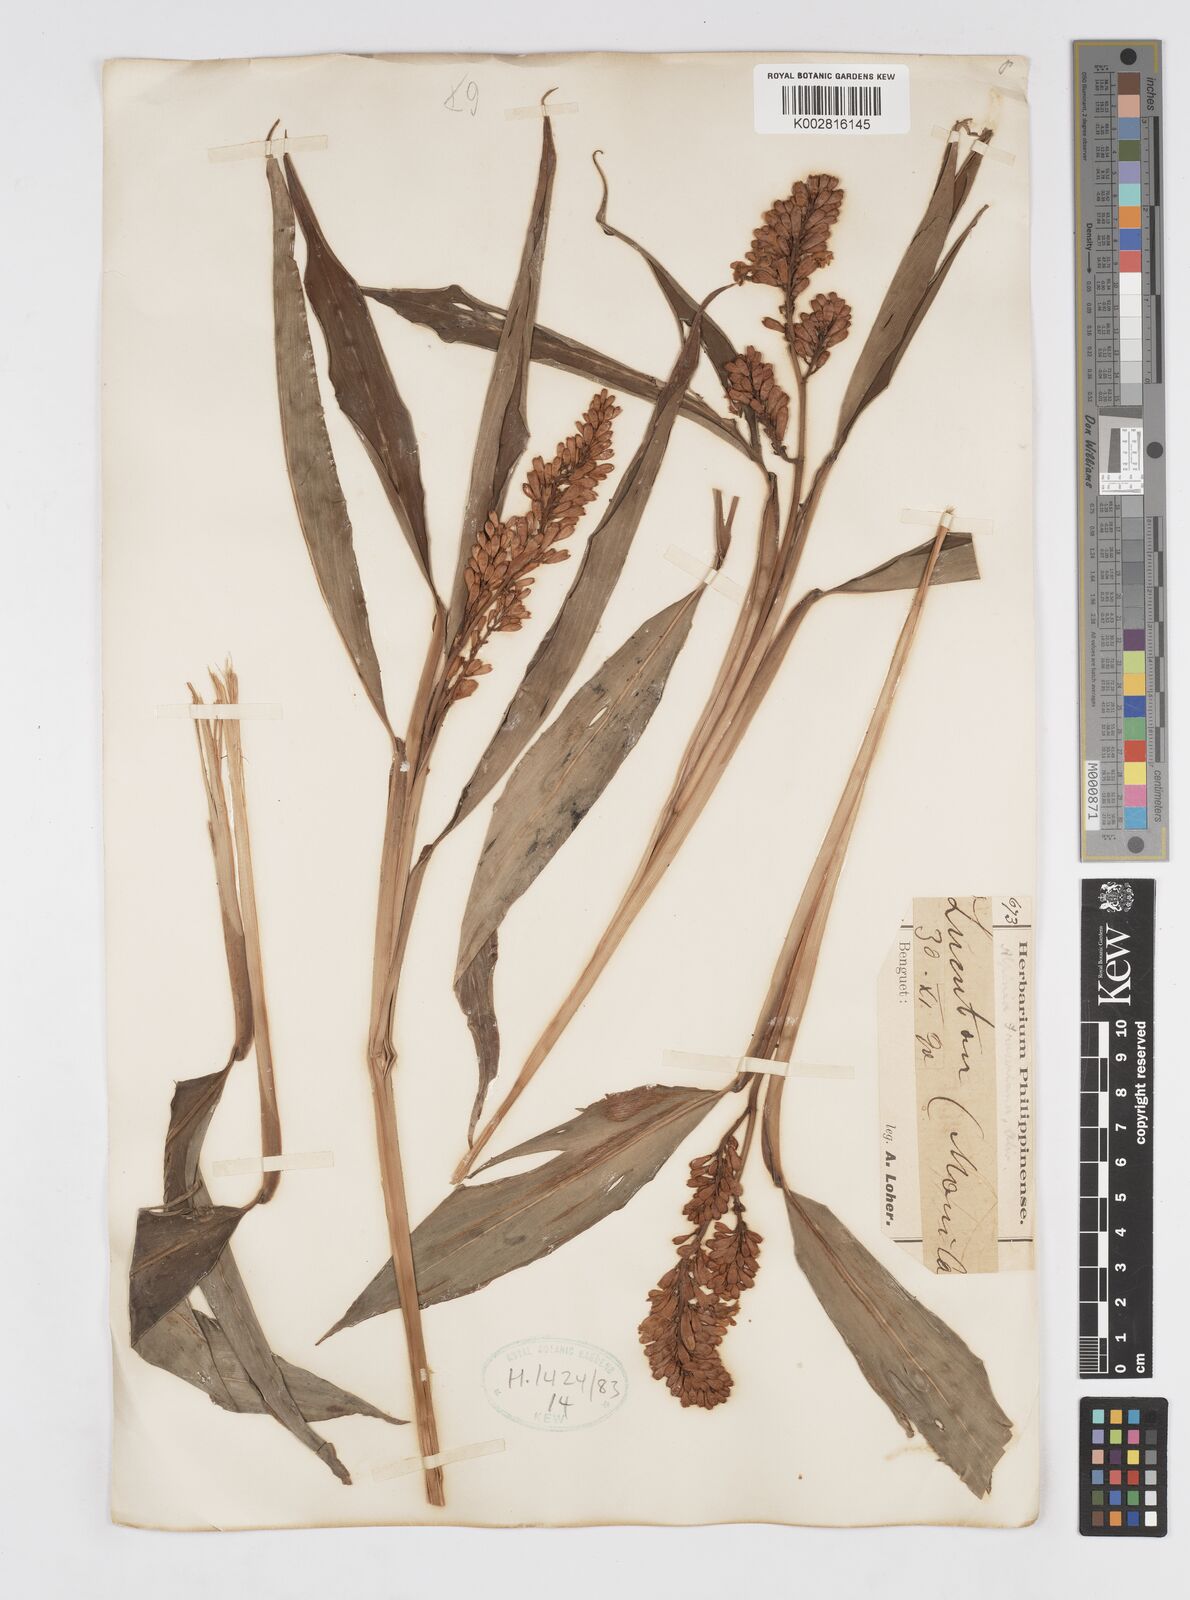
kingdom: Plantae
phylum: Tracheophyta
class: Liliopsida
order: Zingiberales
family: Zingiberaceae
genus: Alpinia
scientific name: Alpinia brevilabris
